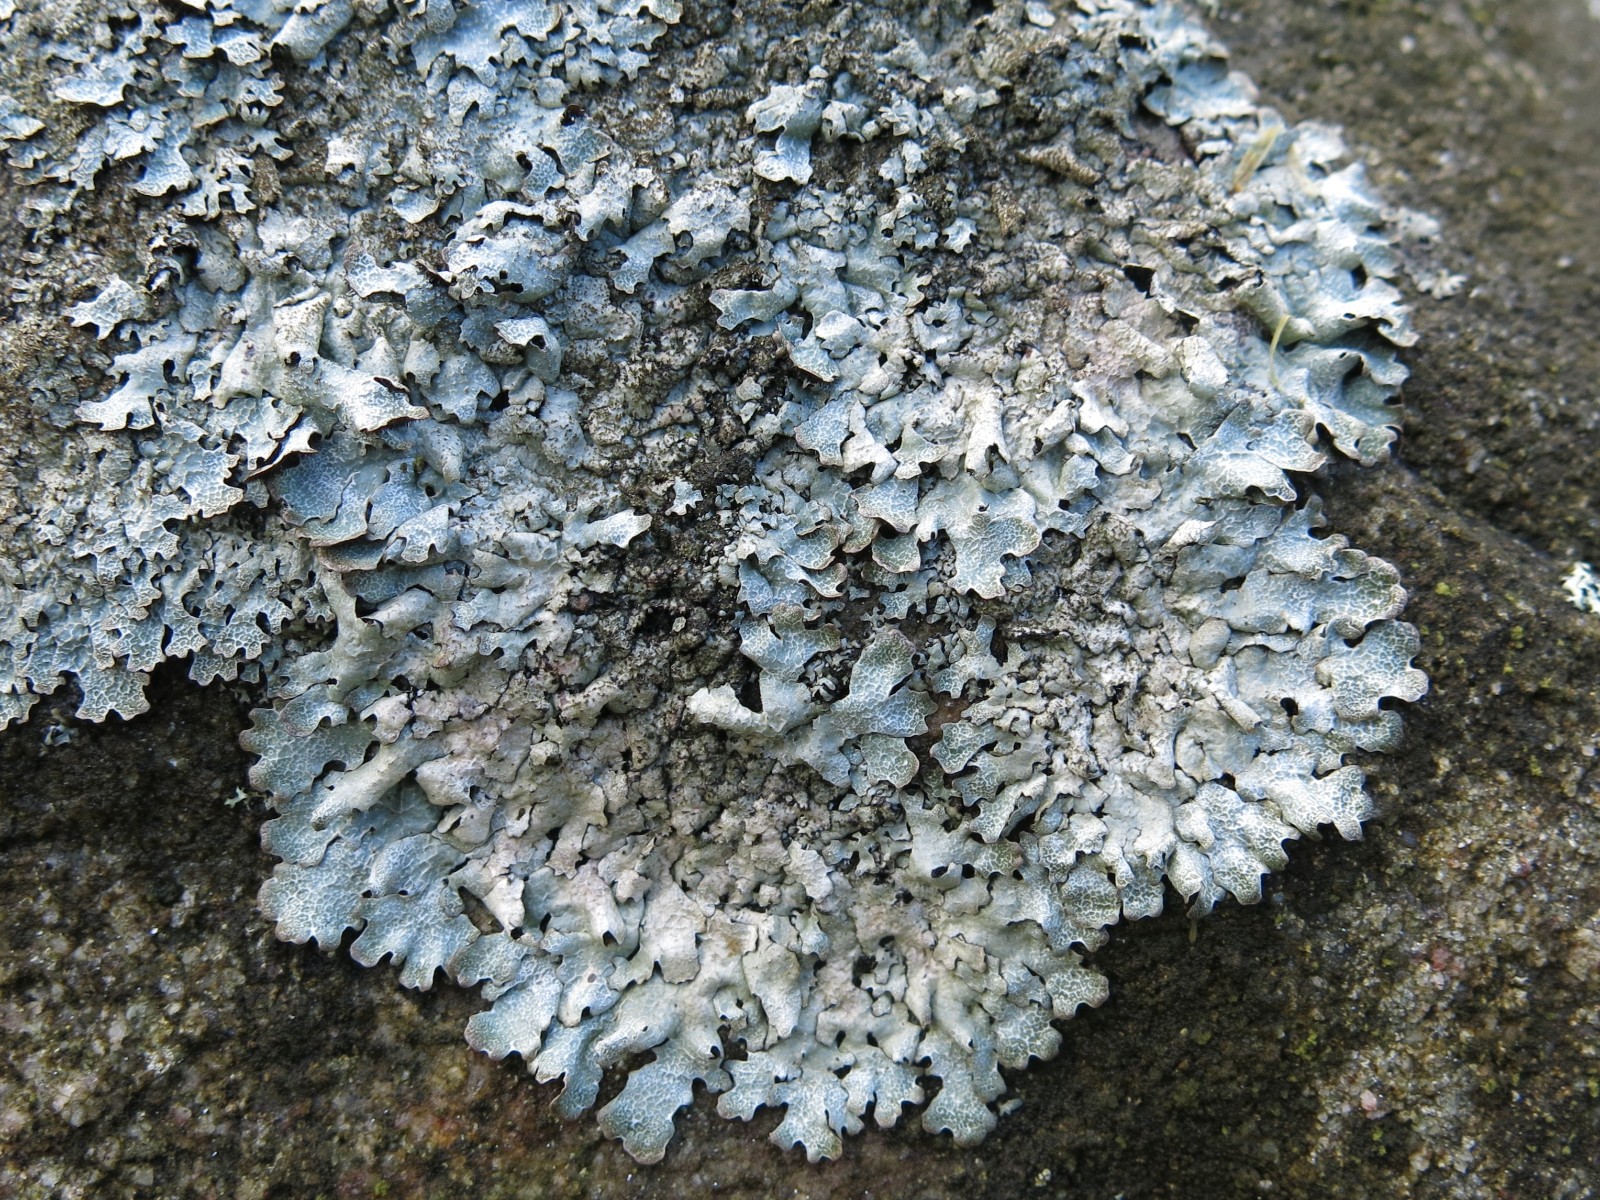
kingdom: Fungi
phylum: Ascomycota
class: Lecanoromycetes
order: Lecanorales
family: Parmeliaceae
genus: Parmelia
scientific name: Parmelia saxatilis
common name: farve-skållav
